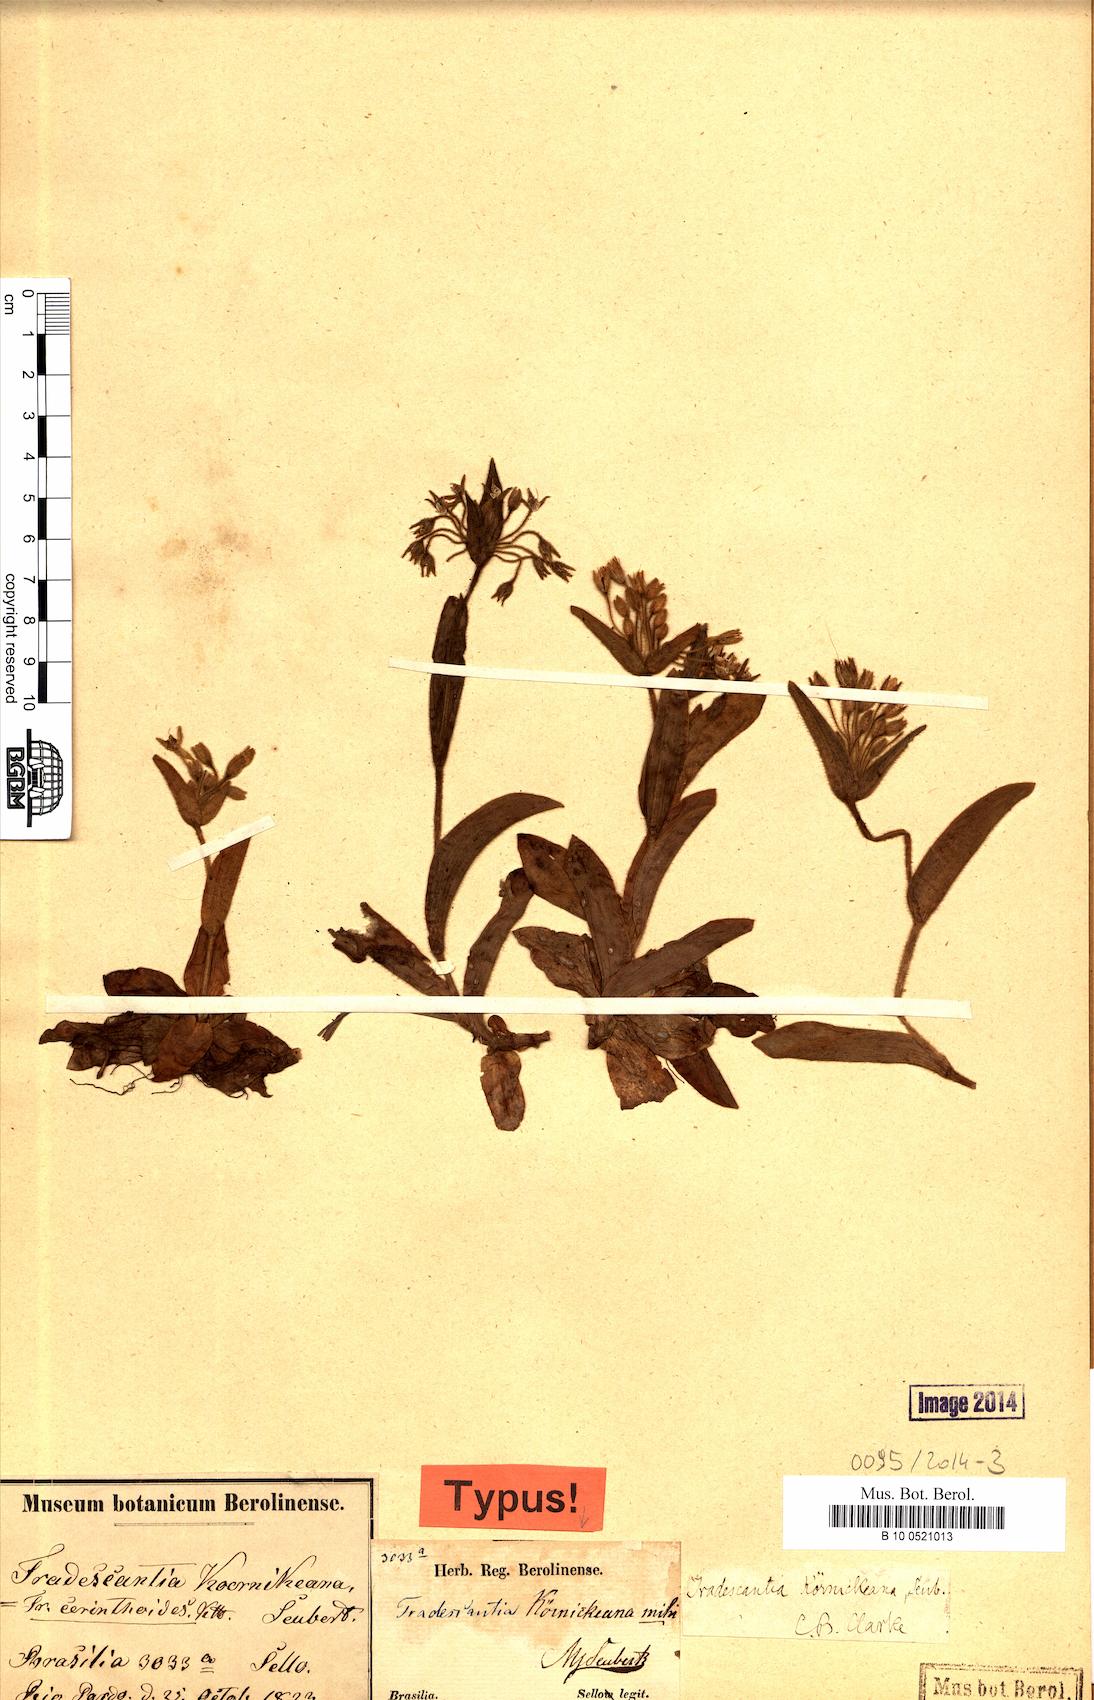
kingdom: Plantae
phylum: Tracheophyta
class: Liliopsida
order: Commelinales
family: Commelinaceae
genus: Tradescantia
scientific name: Tradescantia cerinthoides
